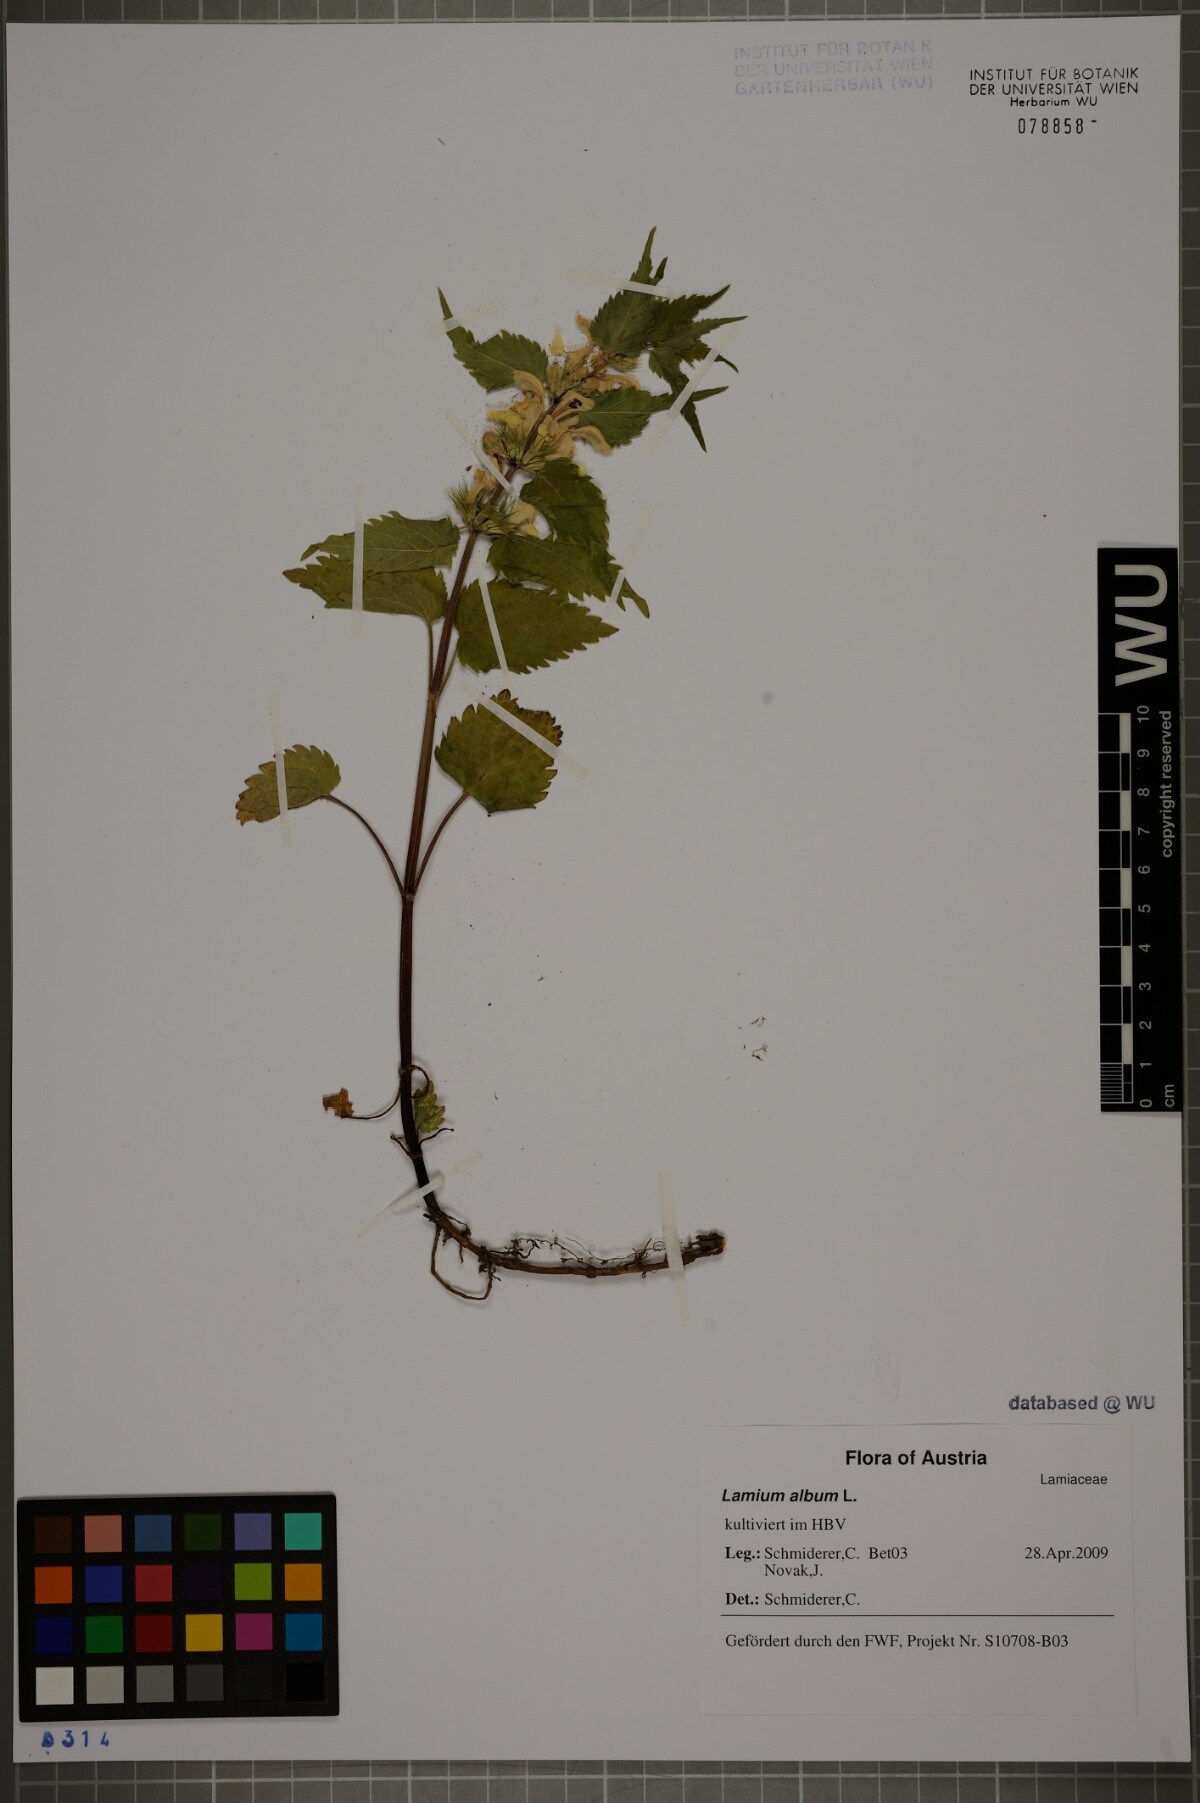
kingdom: Plantae
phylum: Tracheophyta
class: Magnoliopsida
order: Lamiales
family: Lamiaceae
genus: Lamium
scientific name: Lamium album
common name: White dead-nettle
